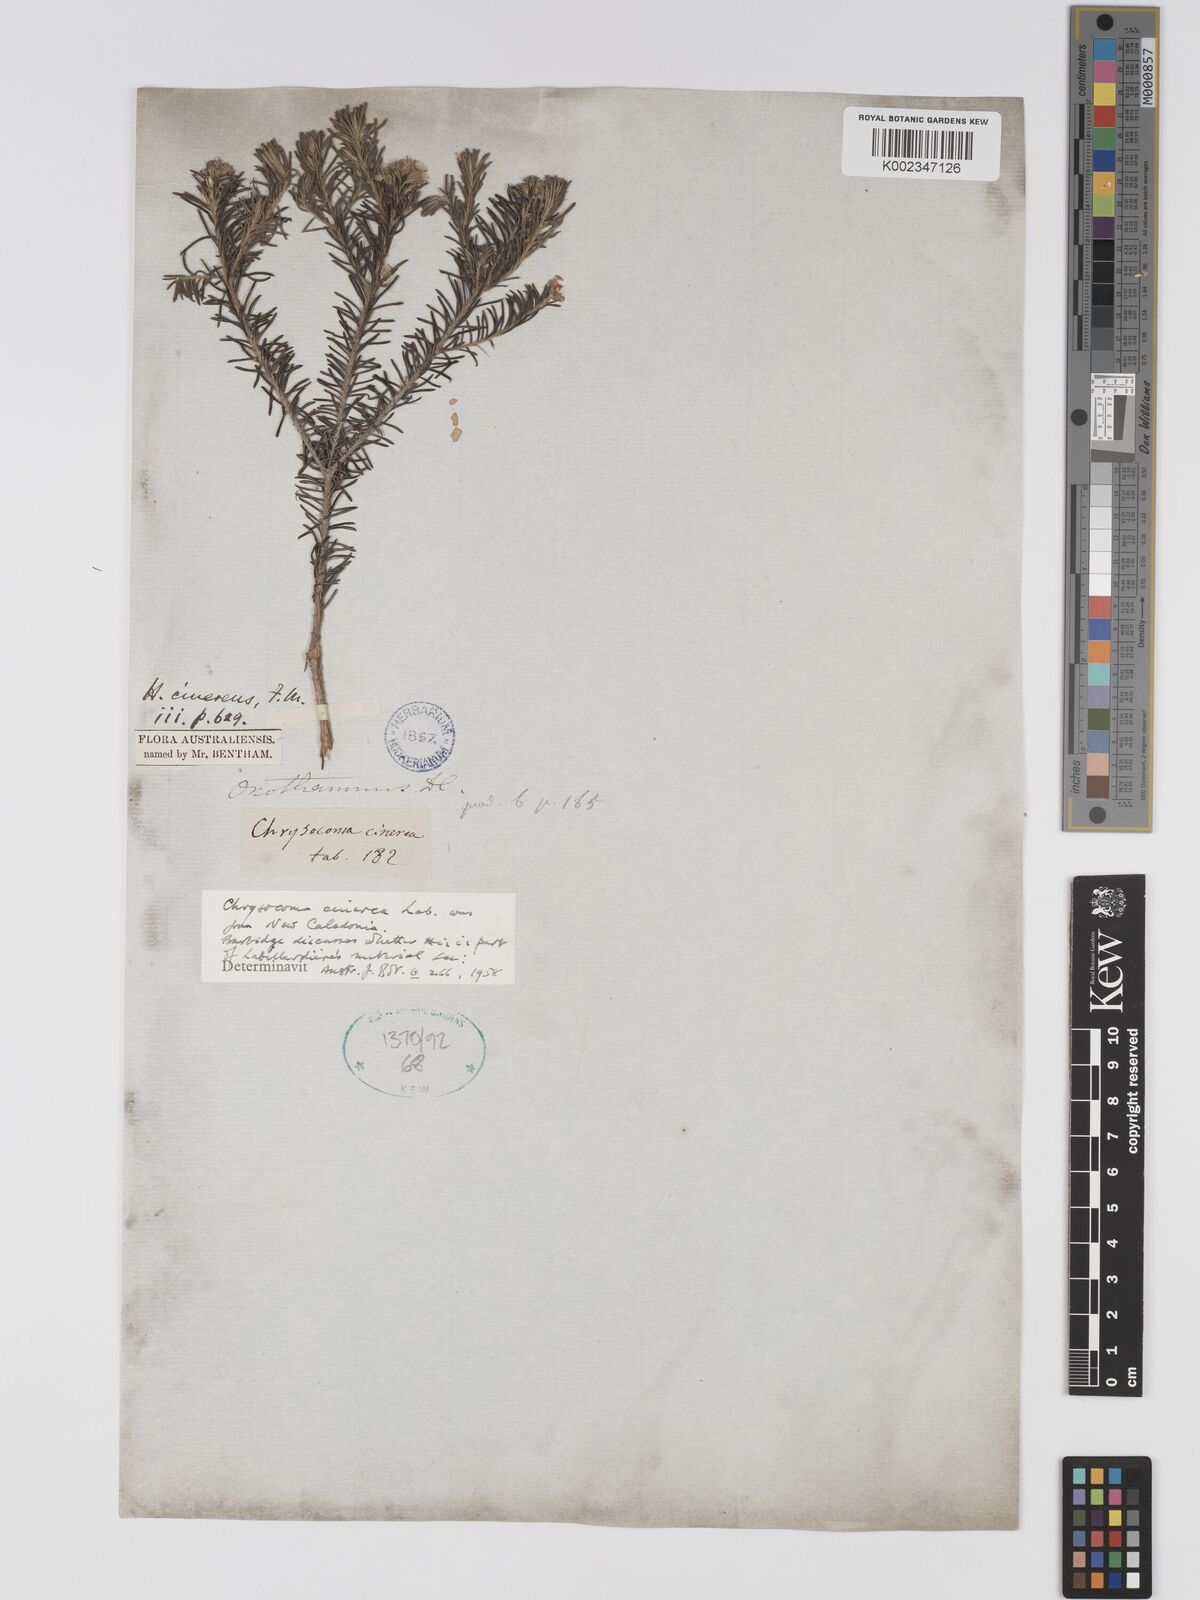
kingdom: Plantae
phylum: Tracheophyta
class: Magnoliopsida
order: Asterales
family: Asteraceae
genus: Ozothamnus
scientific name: Ozothamnus cinereus
